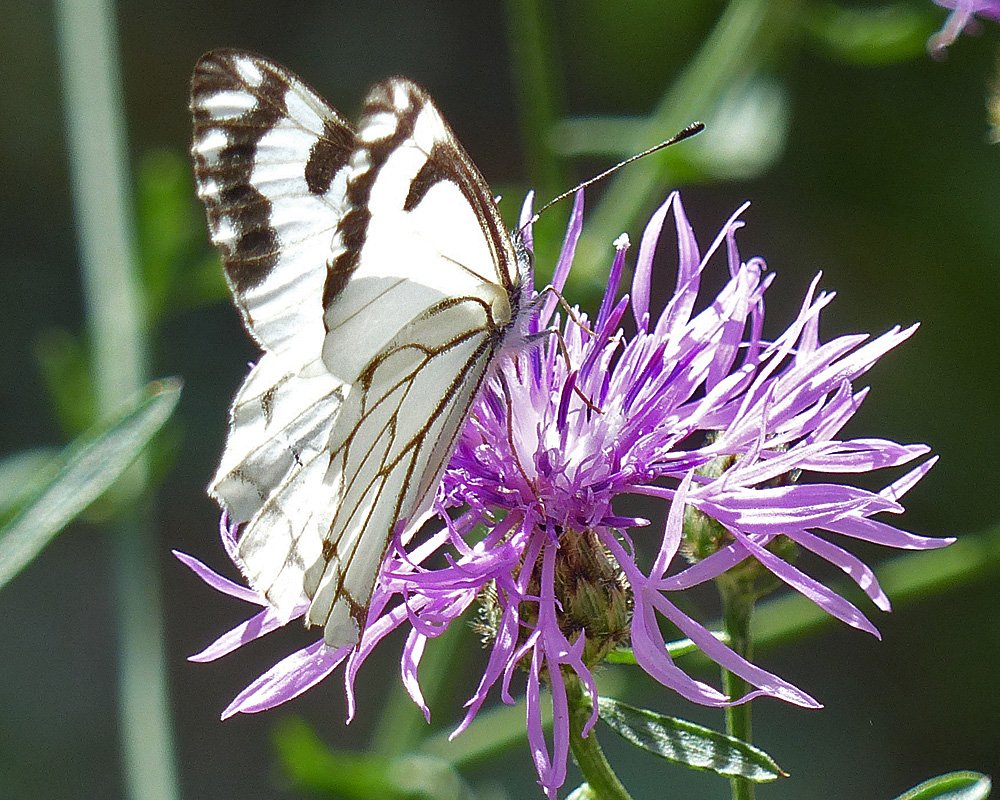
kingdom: Animalia
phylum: Arthropoda
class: Insecta
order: Lepidoptera
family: Pieridae
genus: Neophasia
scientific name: Neophasia menapia
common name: Pine White
